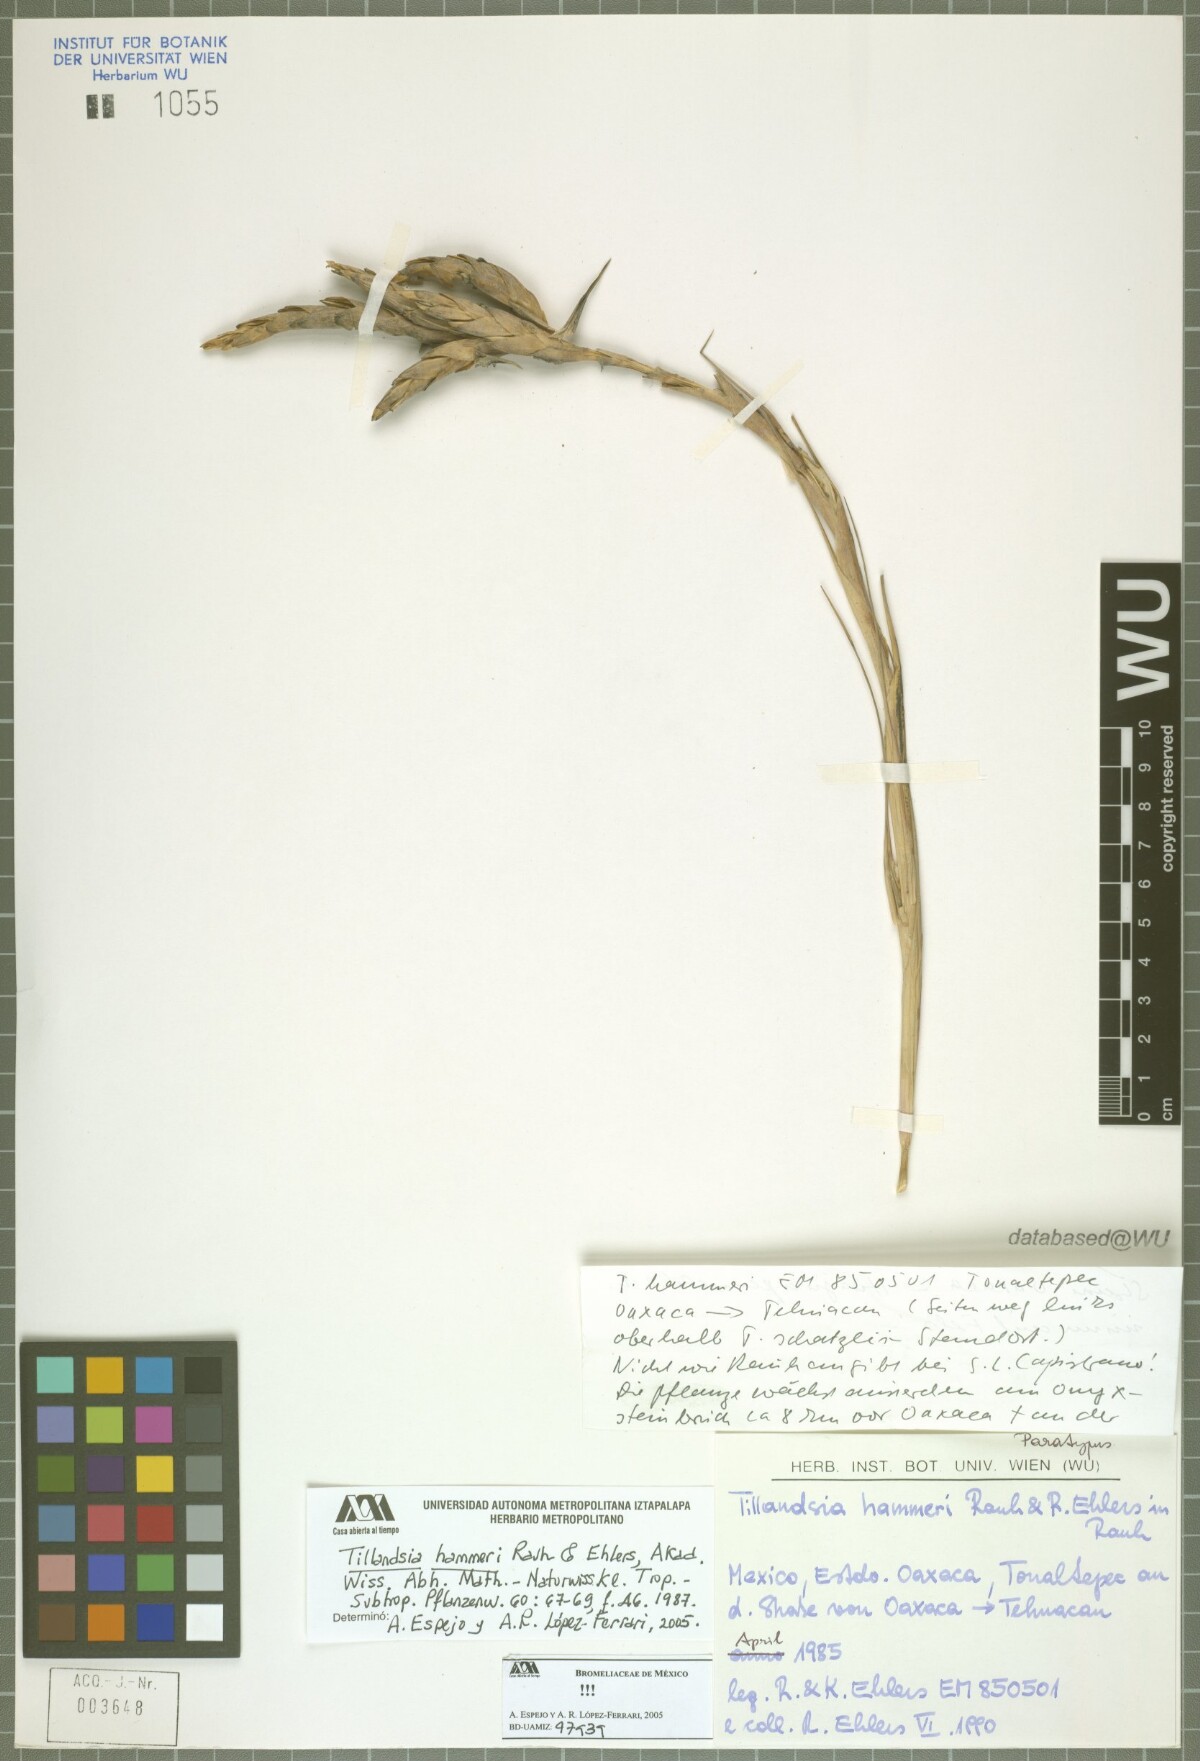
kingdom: Plantae
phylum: Tracheophyta
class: Liliopsida
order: Poales
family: Bromeliaceae
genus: Tillandsia
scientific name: Tillandsia hammeri
